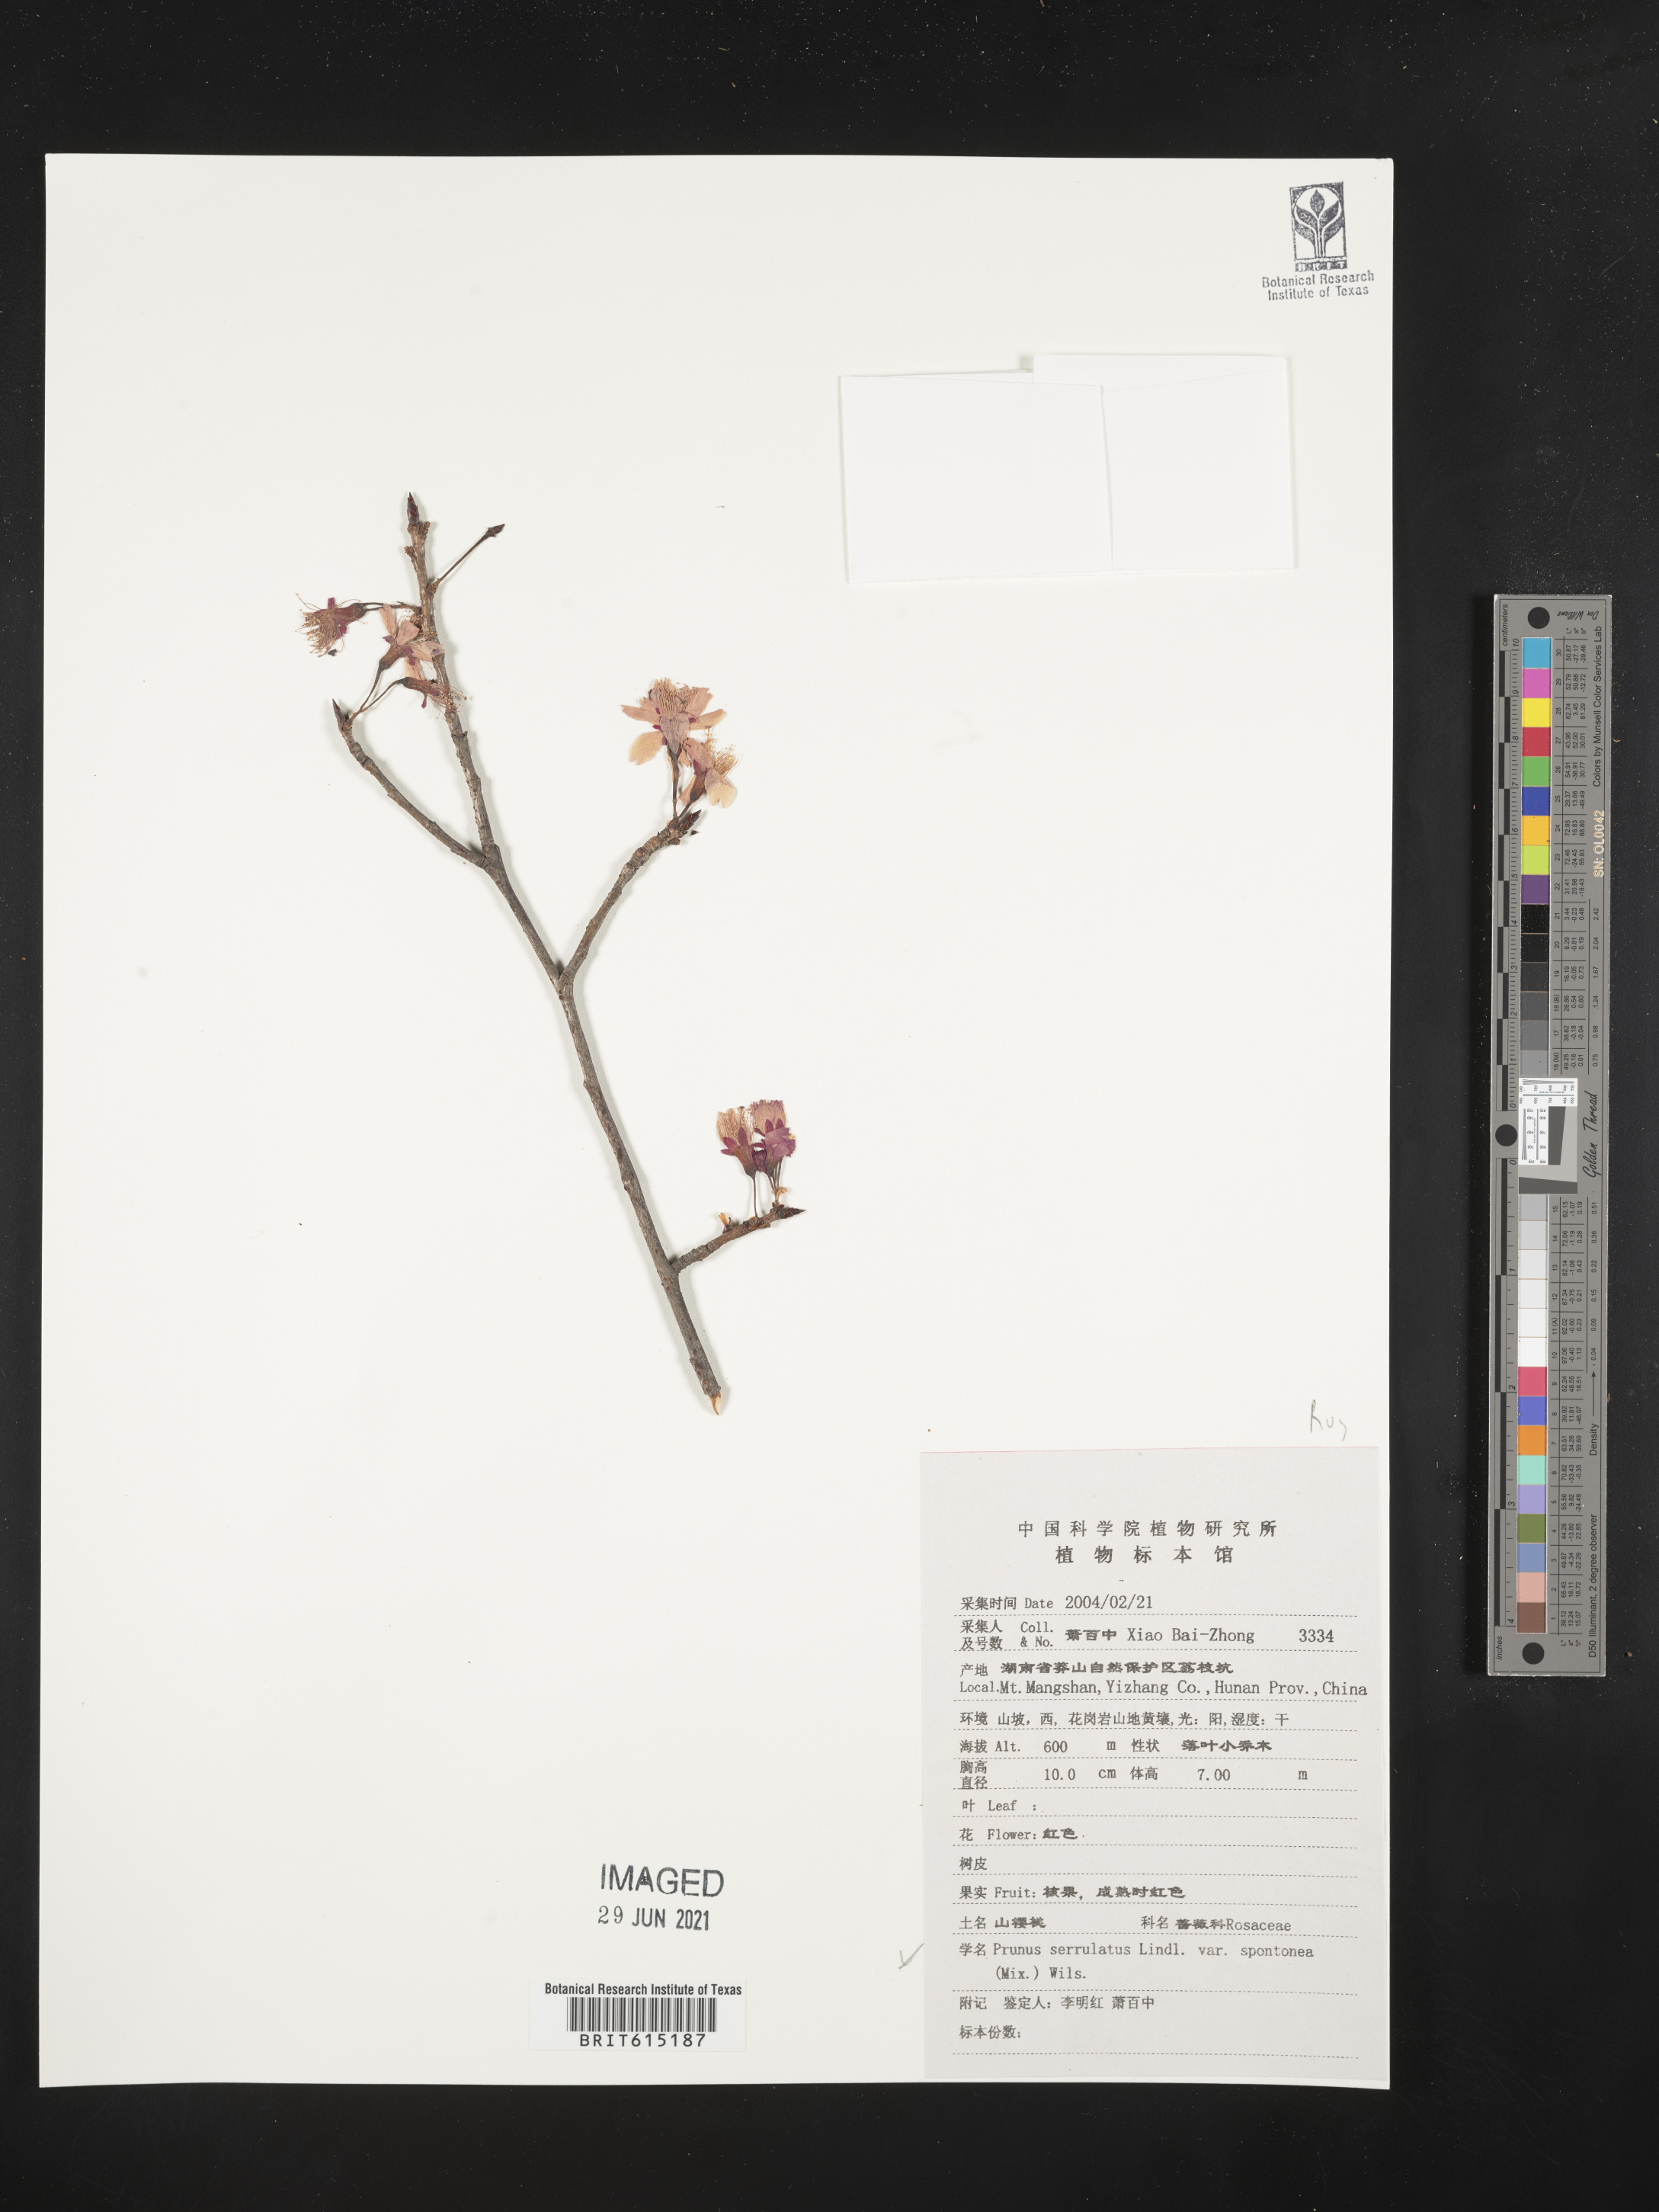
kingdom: Plantae
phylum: Tracheophyta
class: Magnoliopsida
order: Rosales
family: Rosaceae
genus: Prunus
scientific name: Prunus serrulata
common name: Japanese cherry
